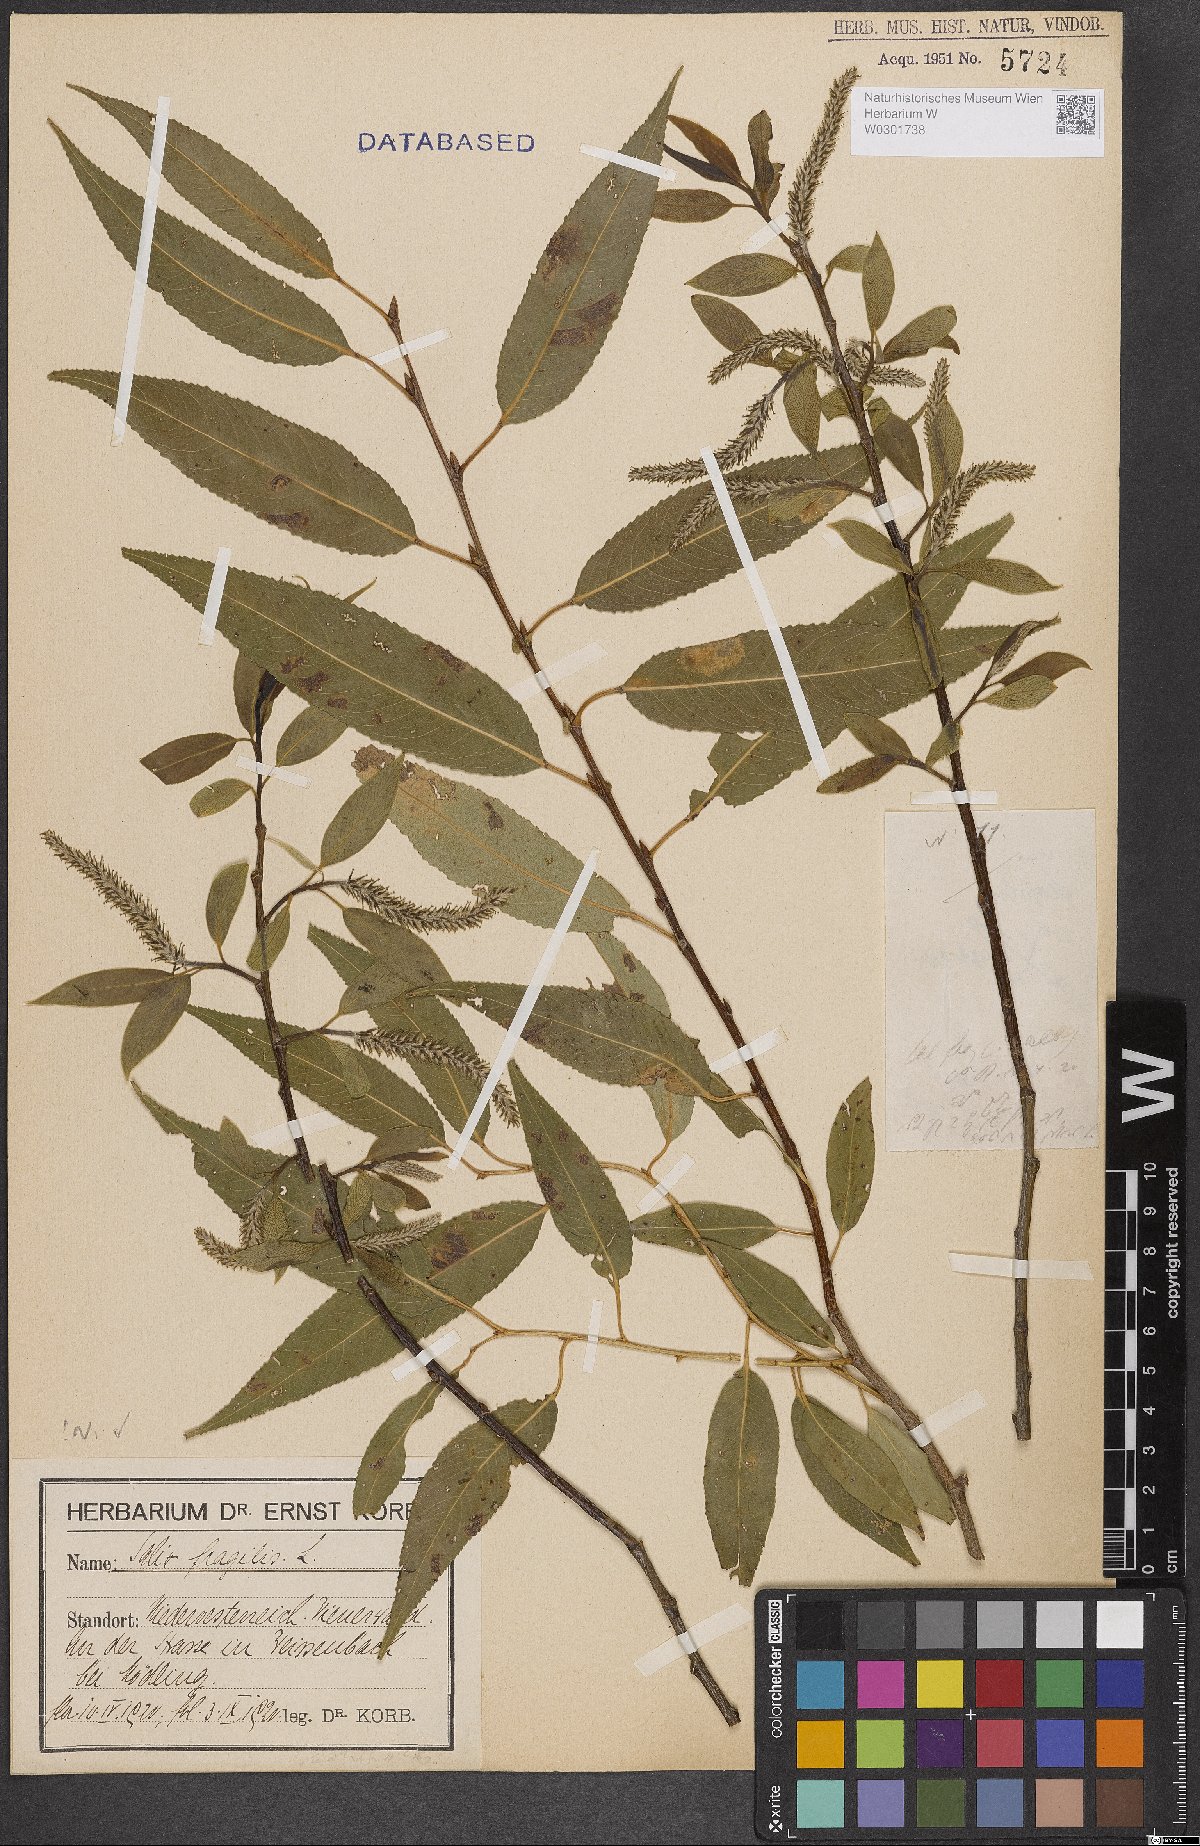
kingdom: Plantae
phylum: Tracheophyta
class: Magnoliopsida
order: Malpighiales
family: Salicaceae
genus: Salix
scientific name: Salix fragilis
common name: Crack willow
